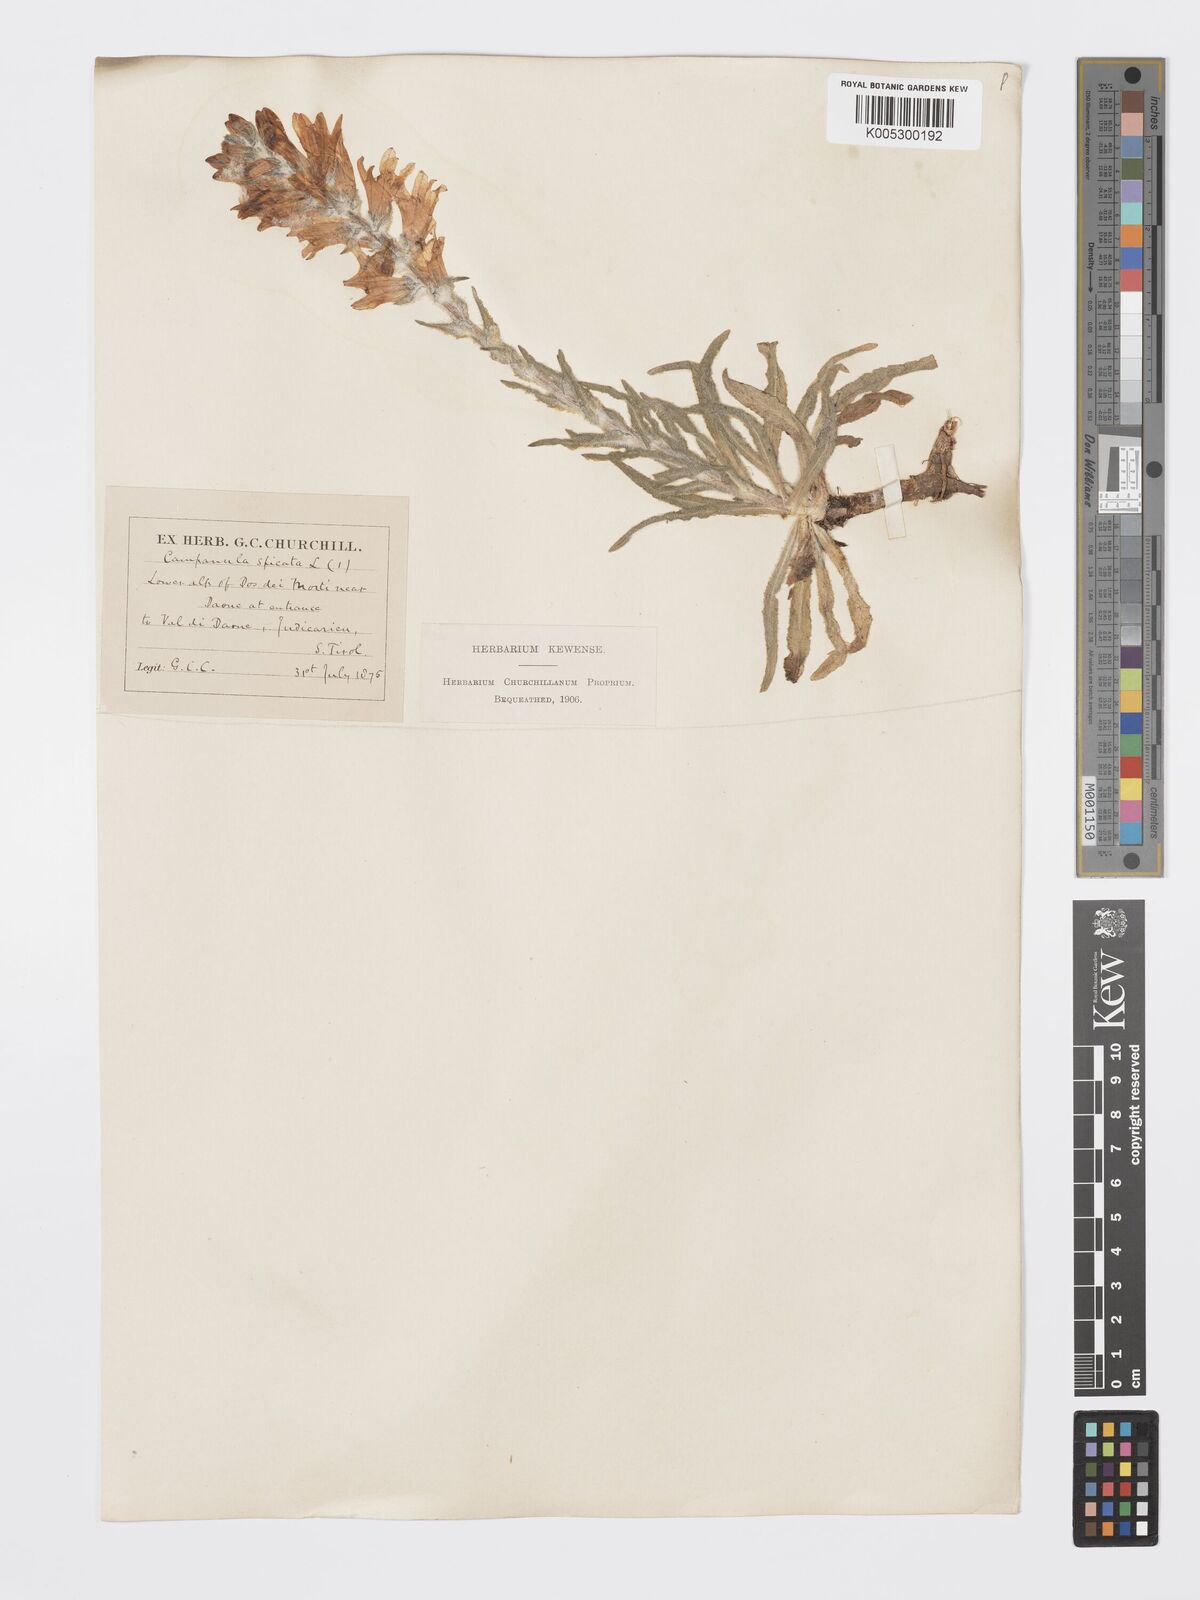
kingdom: Plantae
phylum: Tracheophyta
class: Magnoliopsida
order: Asterales
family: Campanulaceae
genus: Campanula
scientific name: Campanula spicata
